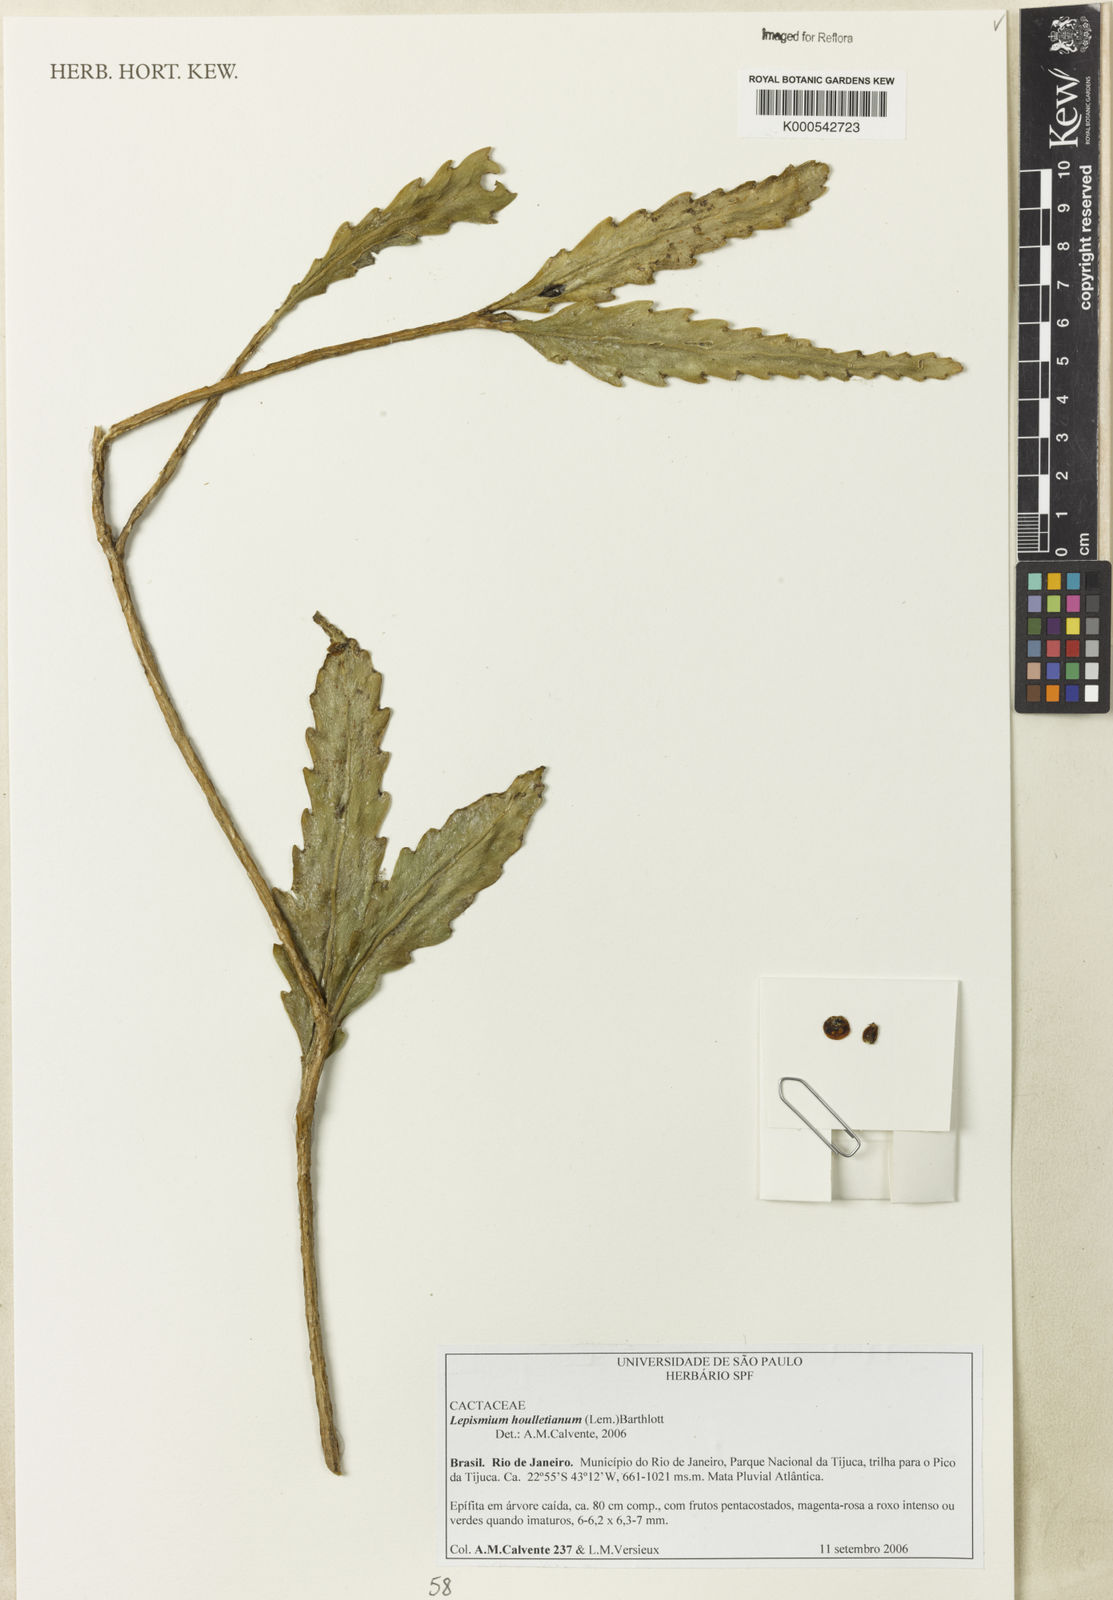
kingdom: Plantae
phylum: Tracheophyta
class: Magnoliopsida
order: Caryophyllales
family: Cactaceae
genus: Lepismium
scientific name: Lepismium houlletianum
